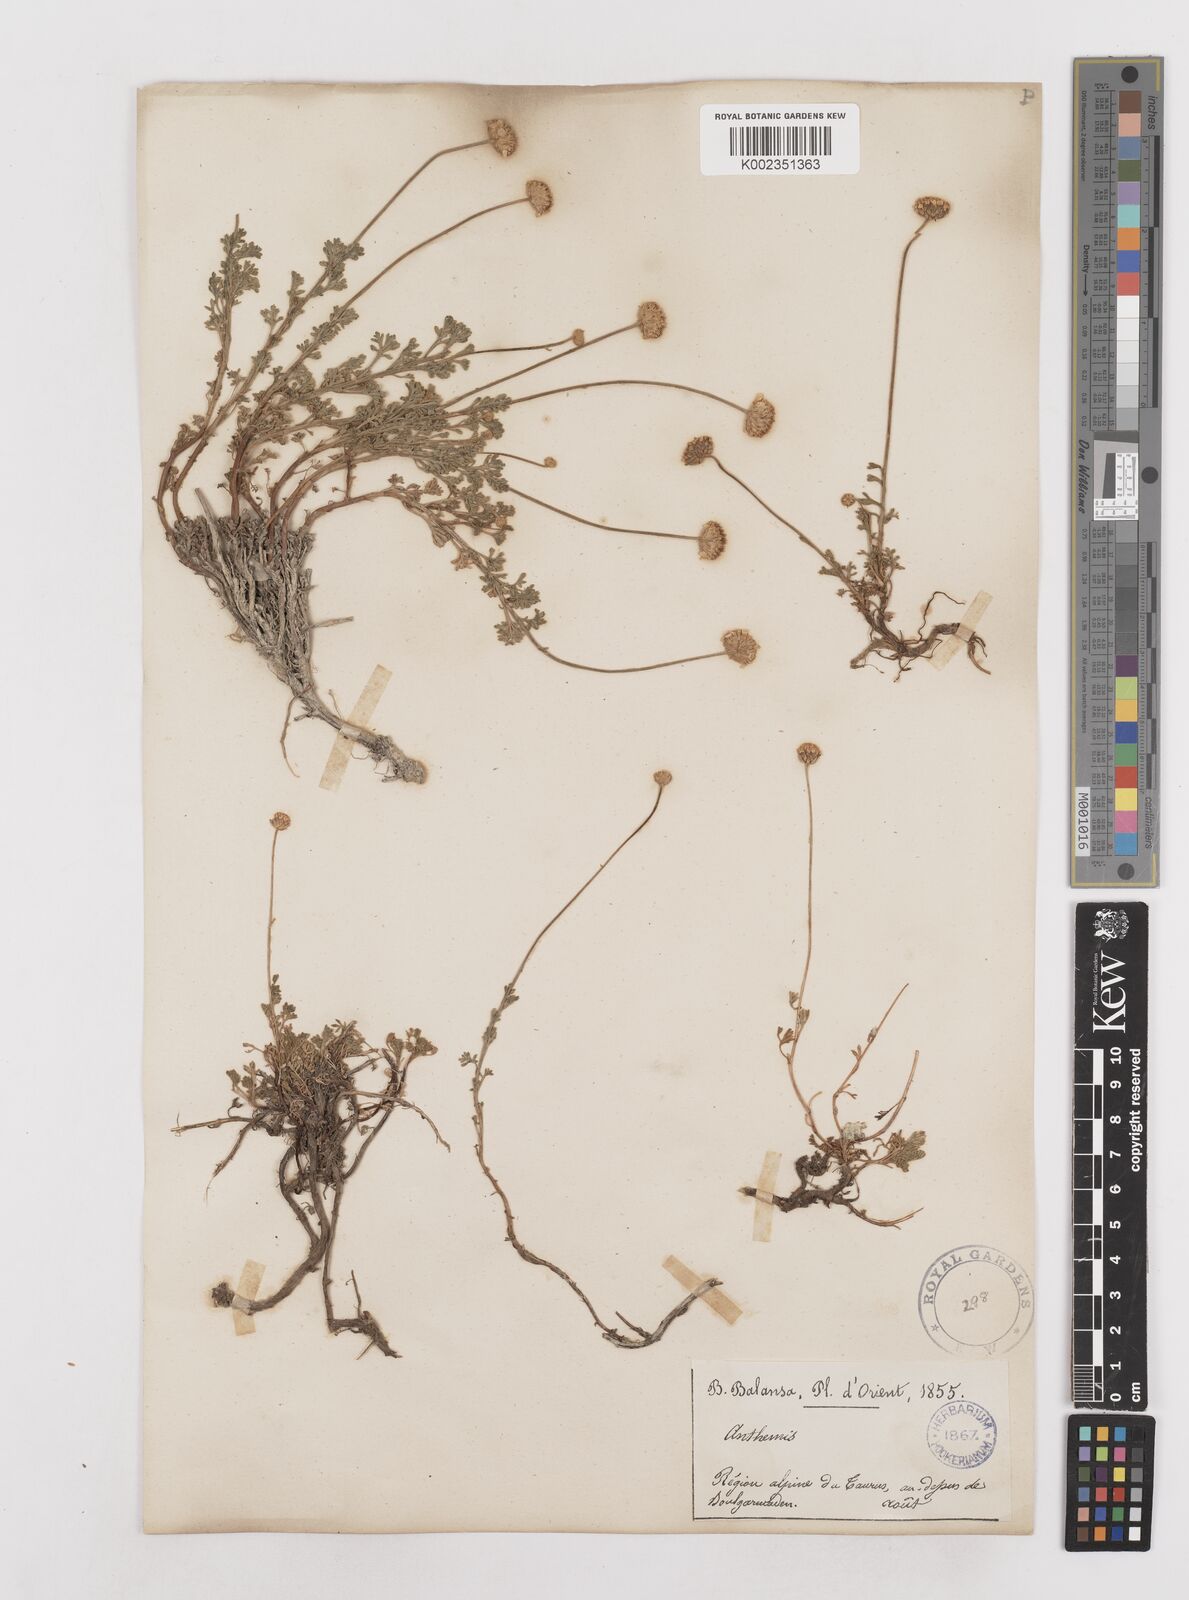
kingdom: Plantae
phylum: Tracheophyta
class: Magnoliopsida
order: Asterales
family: Asteraceae
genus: Anthemis
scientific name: Anthemis kotschyana
